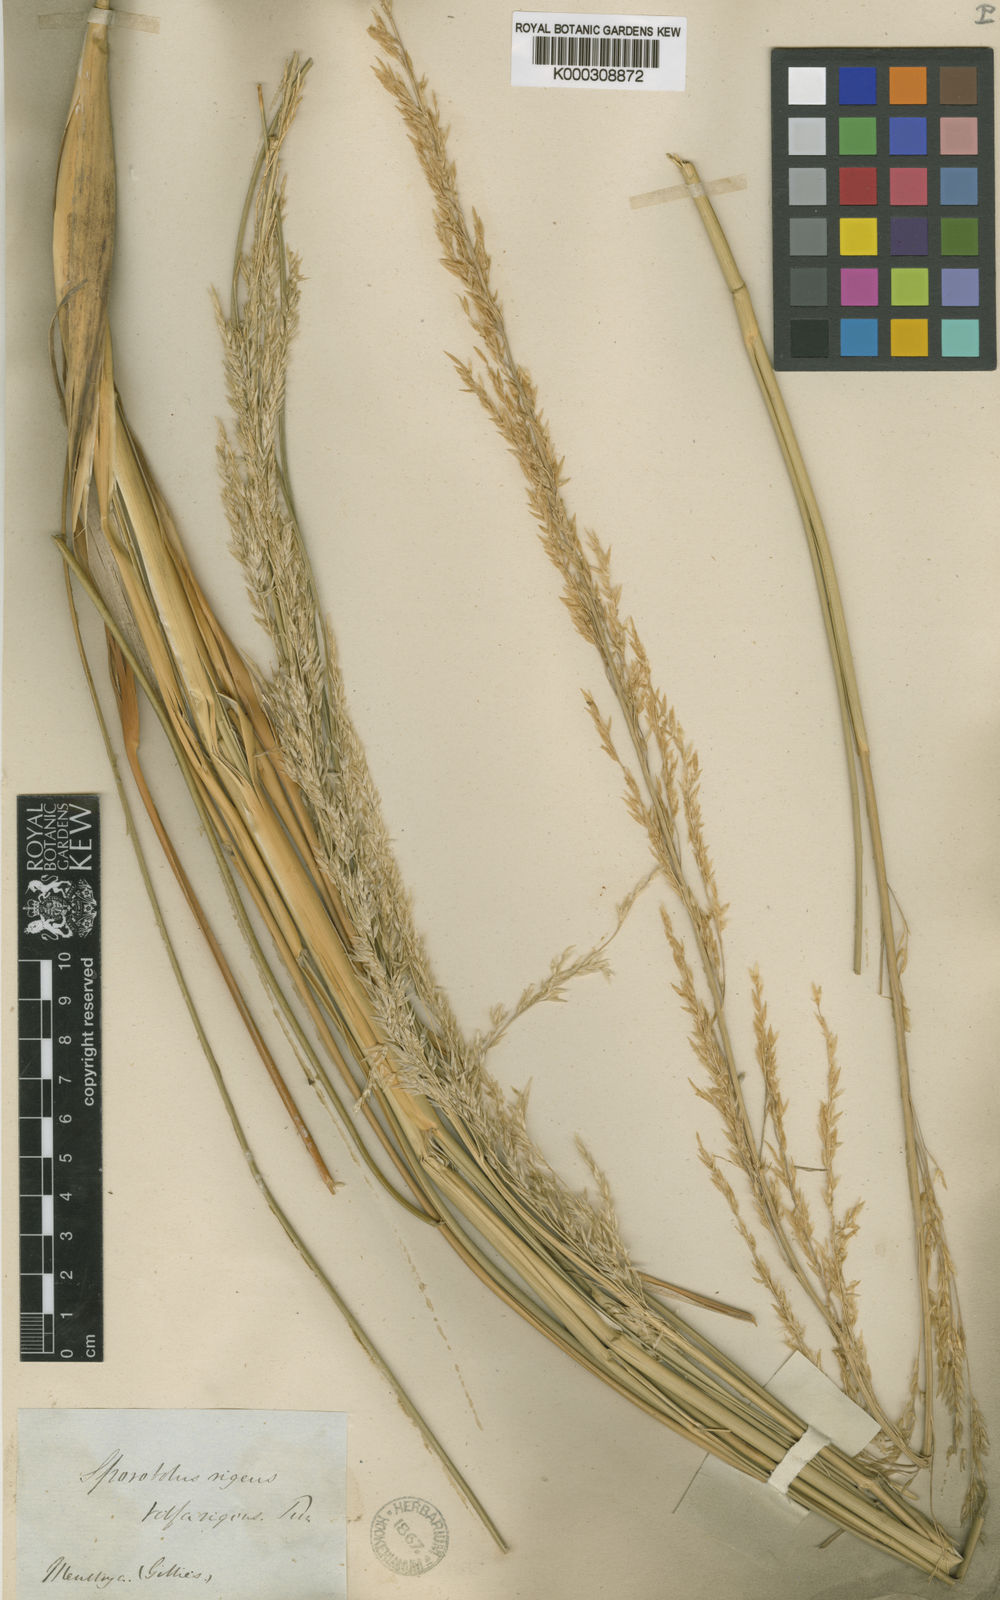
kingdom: Plantae
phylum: Tracheophyta
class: Liliopsida
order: Poales
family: Poaceae
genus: Sporobolus
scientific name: Sporobolus rigens
